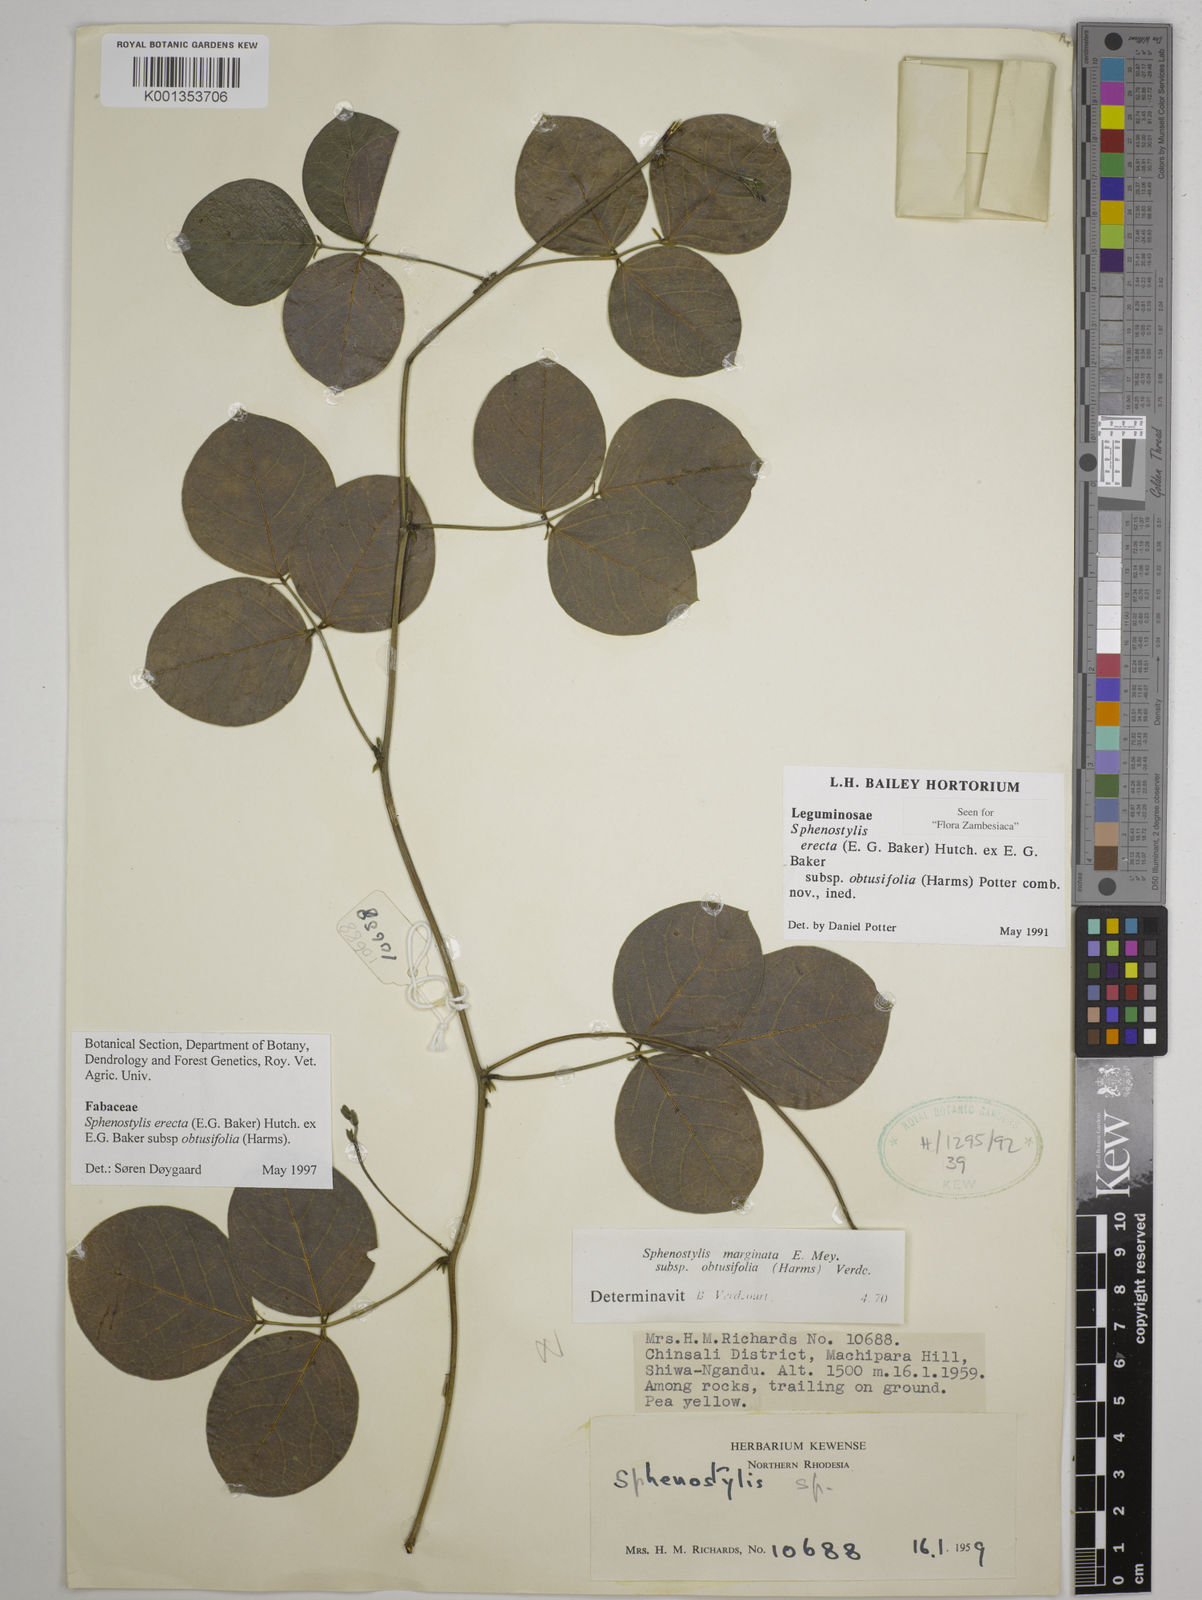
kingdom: Plantae
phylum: Tracheophyta
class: Magnoliopsida
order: Fabales
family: Fabaceae
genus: Sphenostylis
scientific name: Sphenostylis
